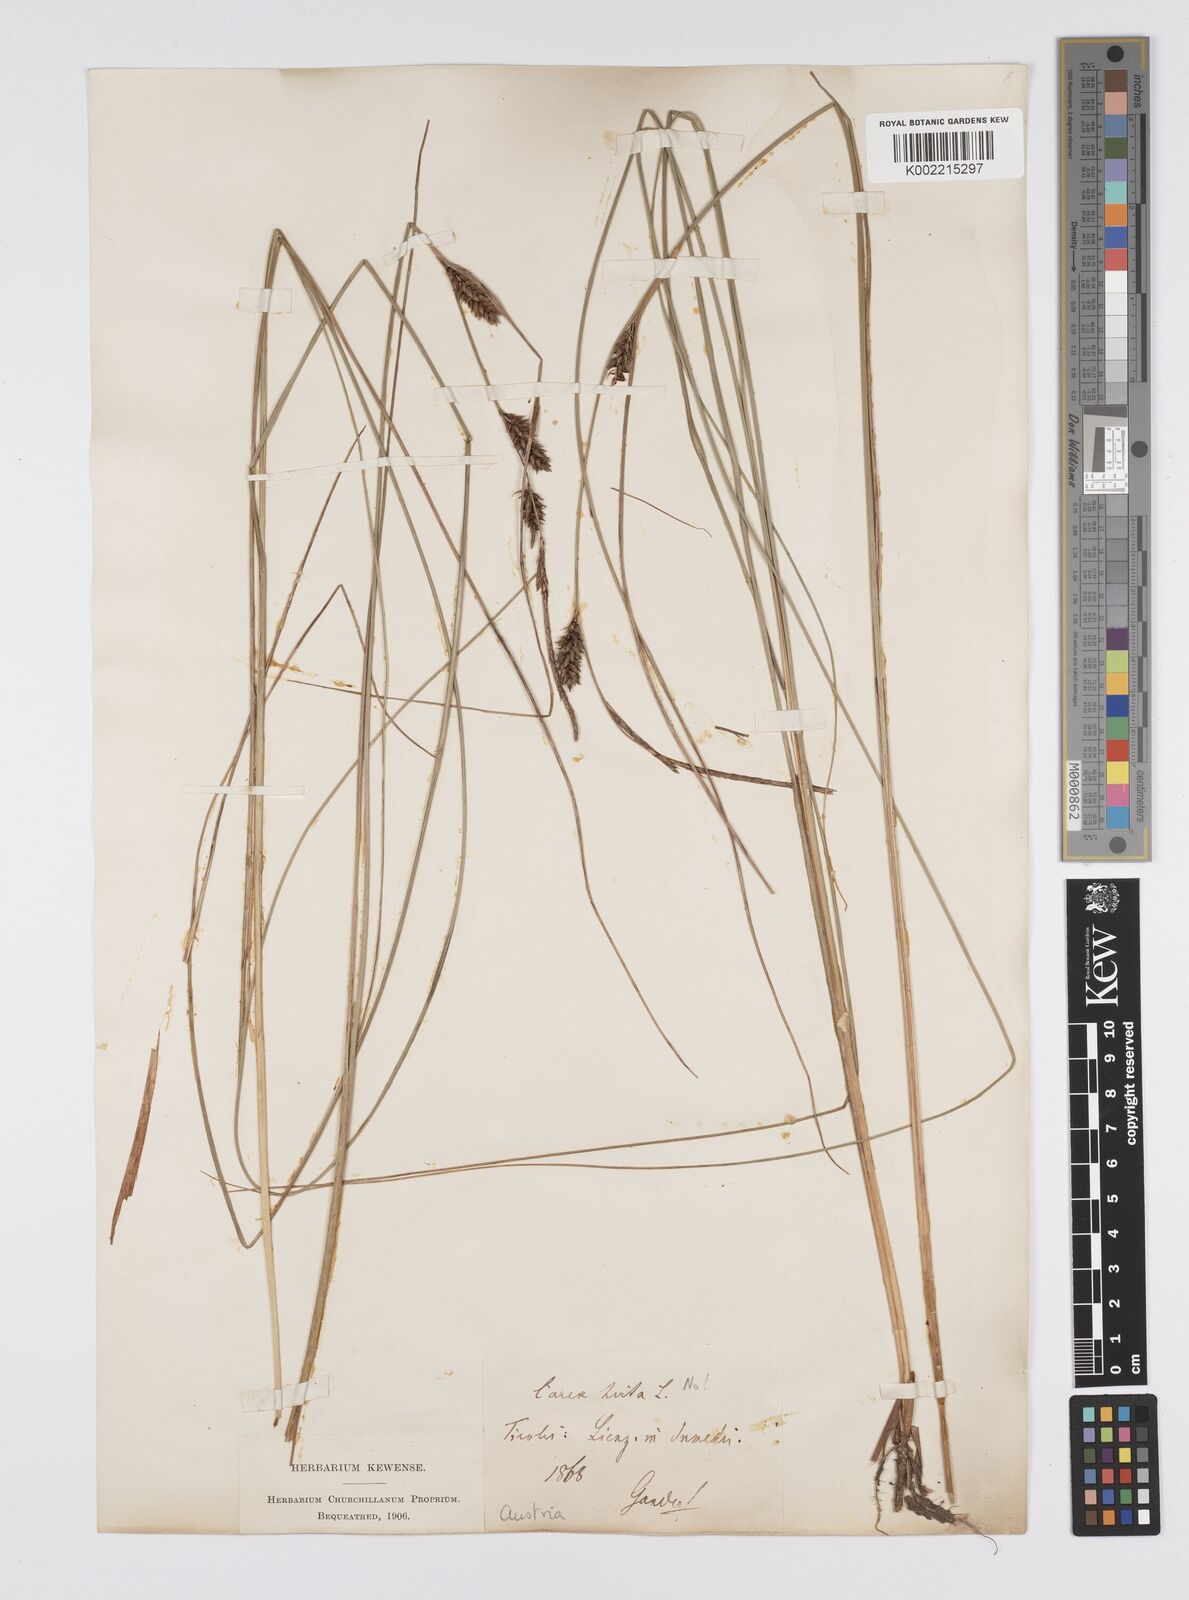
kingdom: Plantae
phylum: Tracheophyta
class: Liliopsida
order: Poales
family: Cyperaceae
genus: Carex
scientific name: Carex lasiocarpa
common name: Slender sedge
